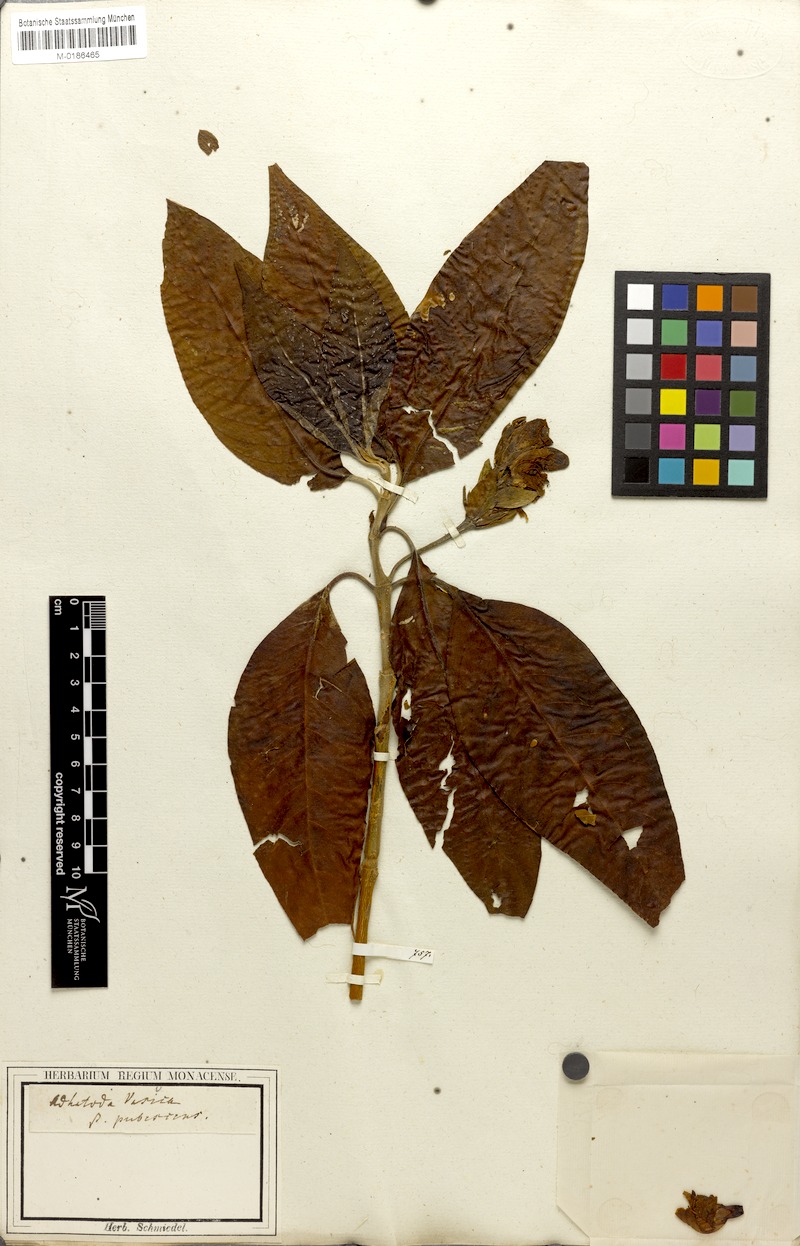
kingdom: Plantae
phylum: Tracheophyta
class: Magnoliopsida
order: Lamiales
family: Acanthaceae
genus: Justicia
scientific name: Justicia adhatoda
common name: Malabar nut
